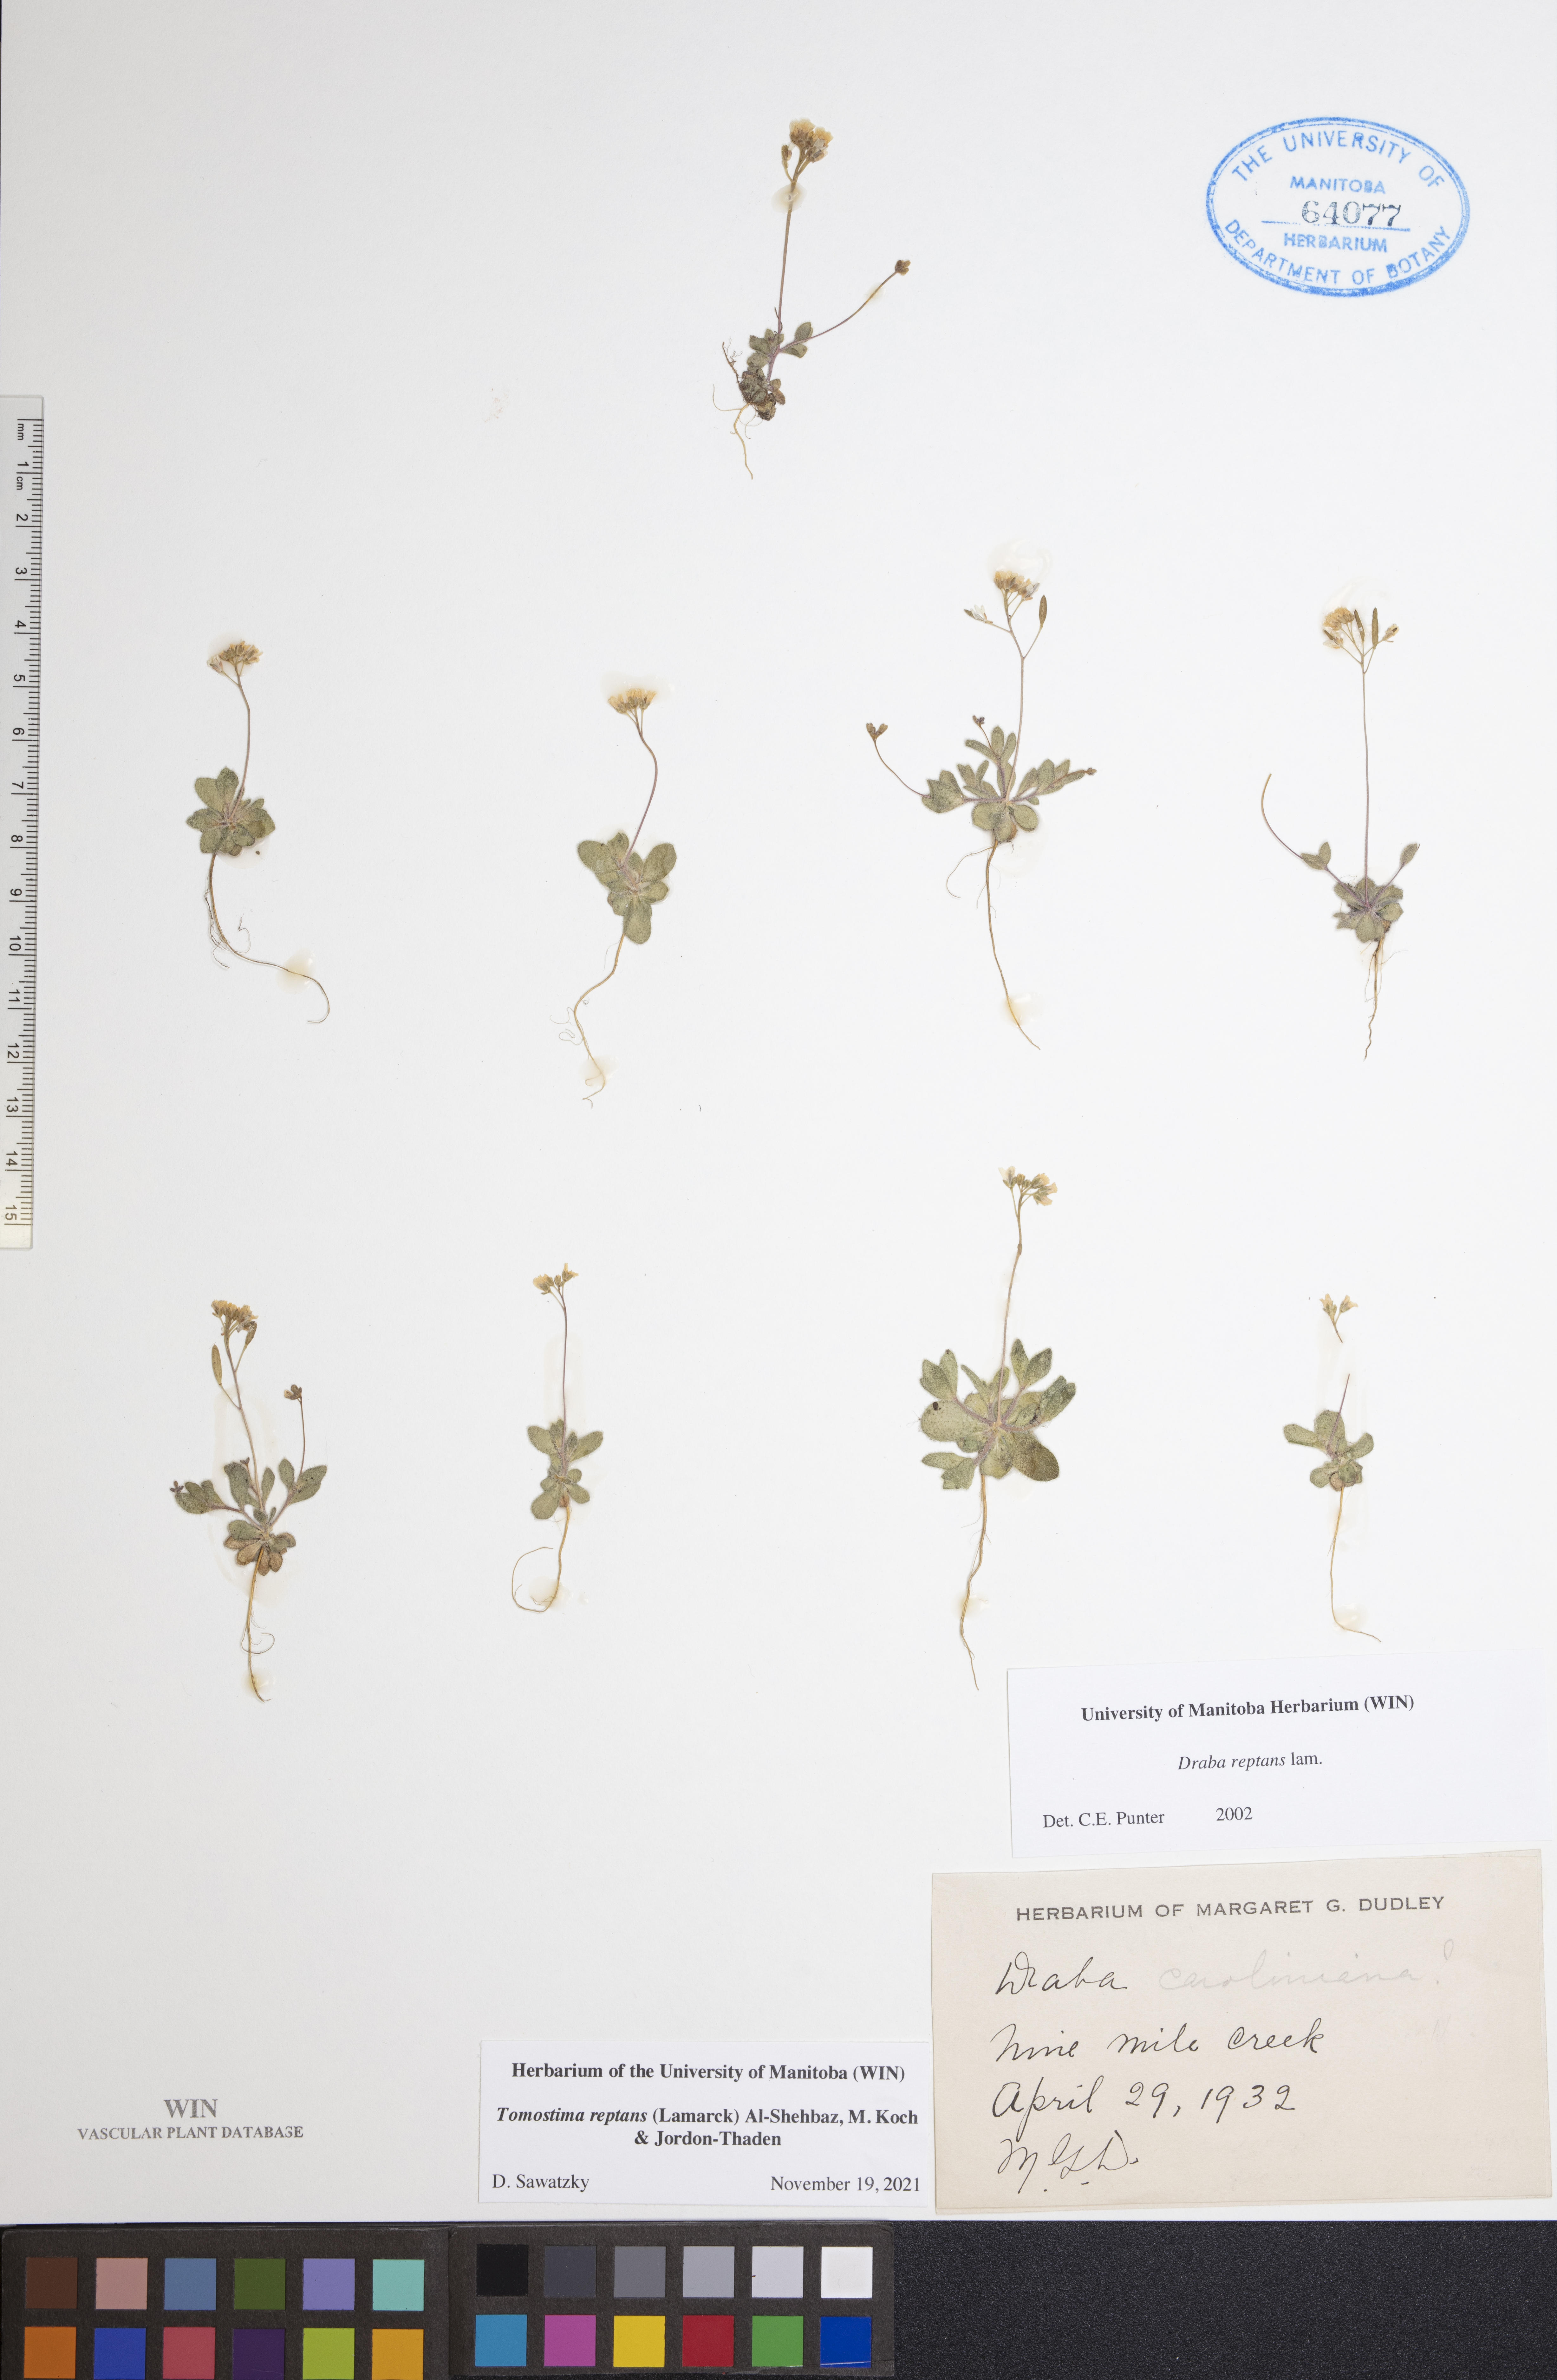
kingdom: Plantae
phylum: Tracheophyta
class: Magnoliopsida
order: Brassicales
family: Brassicaceae
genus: Tomostima
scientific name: Tomostima reptans
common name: Carolina draba
